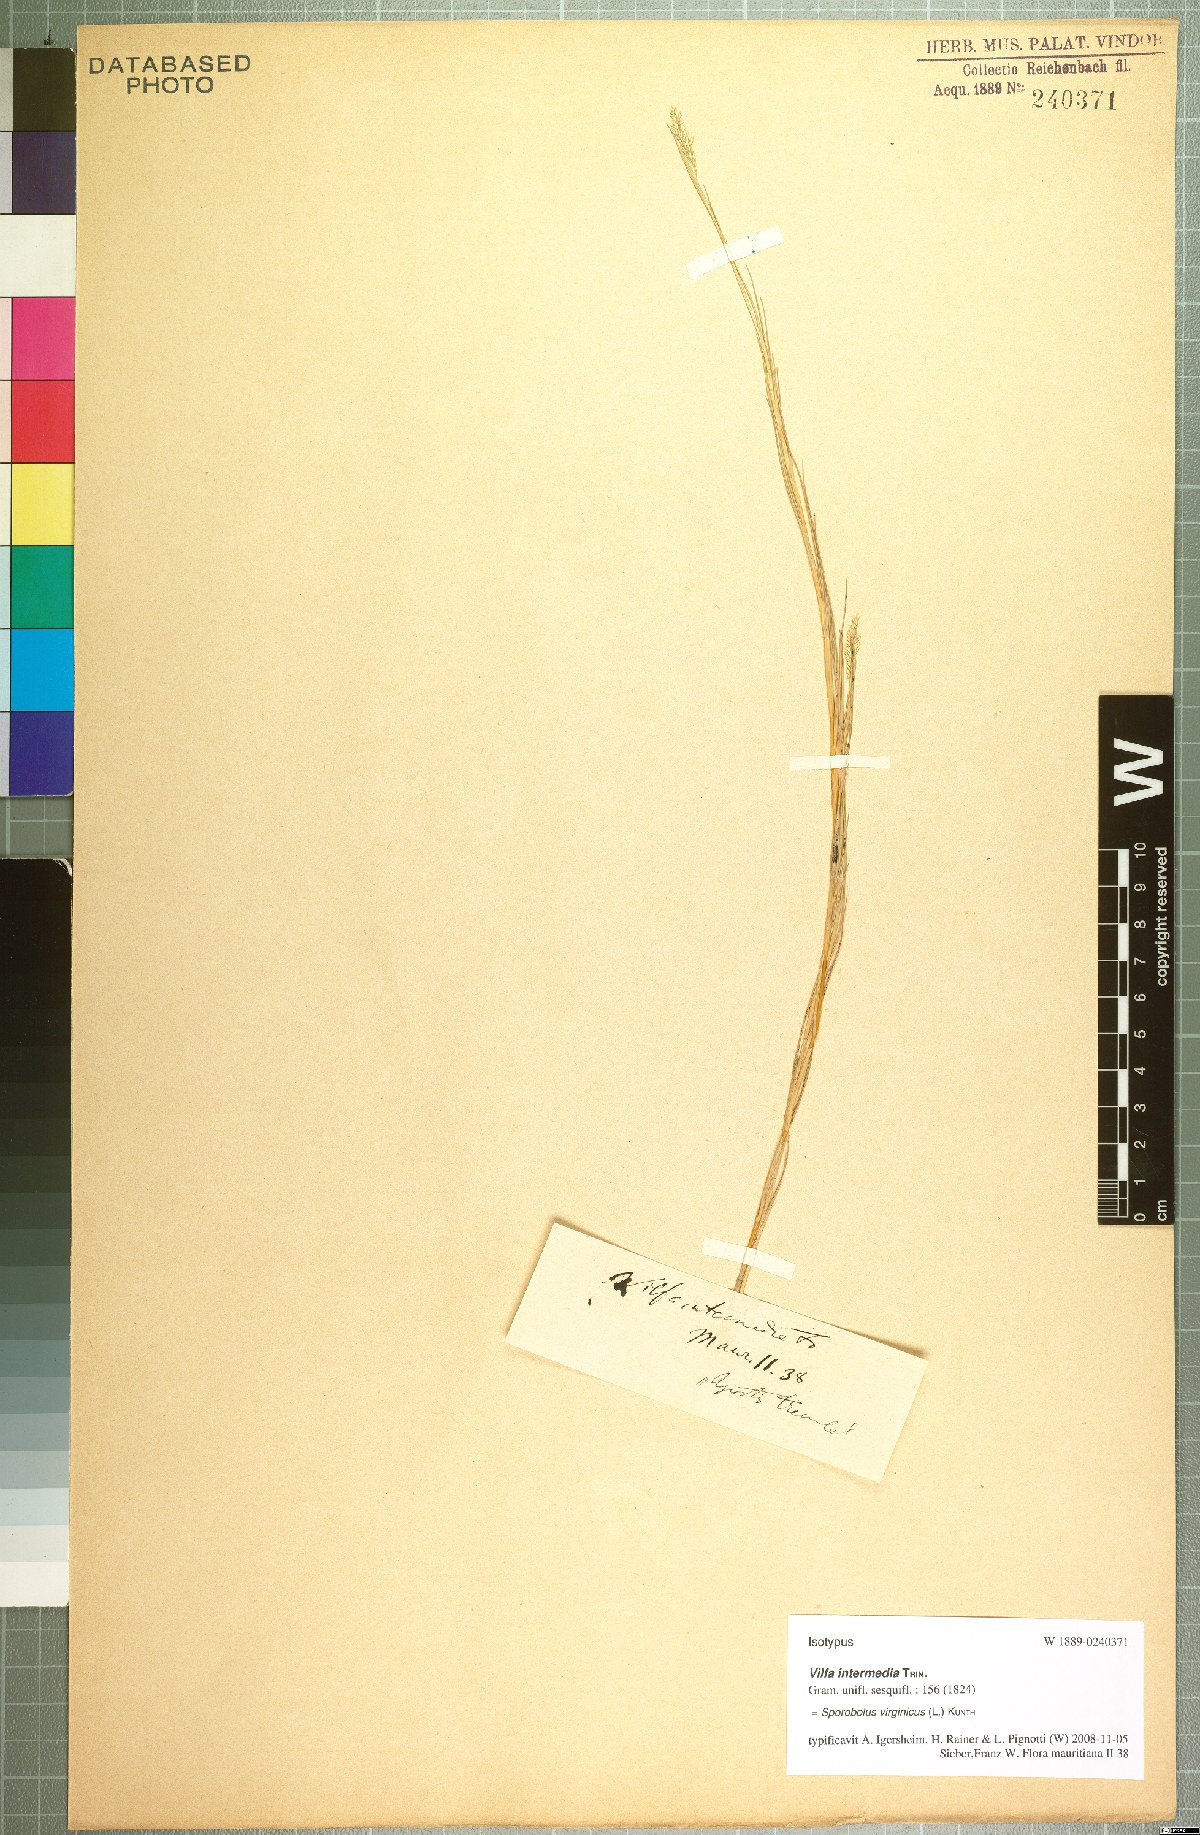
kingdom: Plantae
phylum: Tracheophyta
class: Liliopsida
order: Poales
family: Poaceae
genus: Sporobolus
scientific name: Sporobolus virginicus
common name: Beach dropseed
